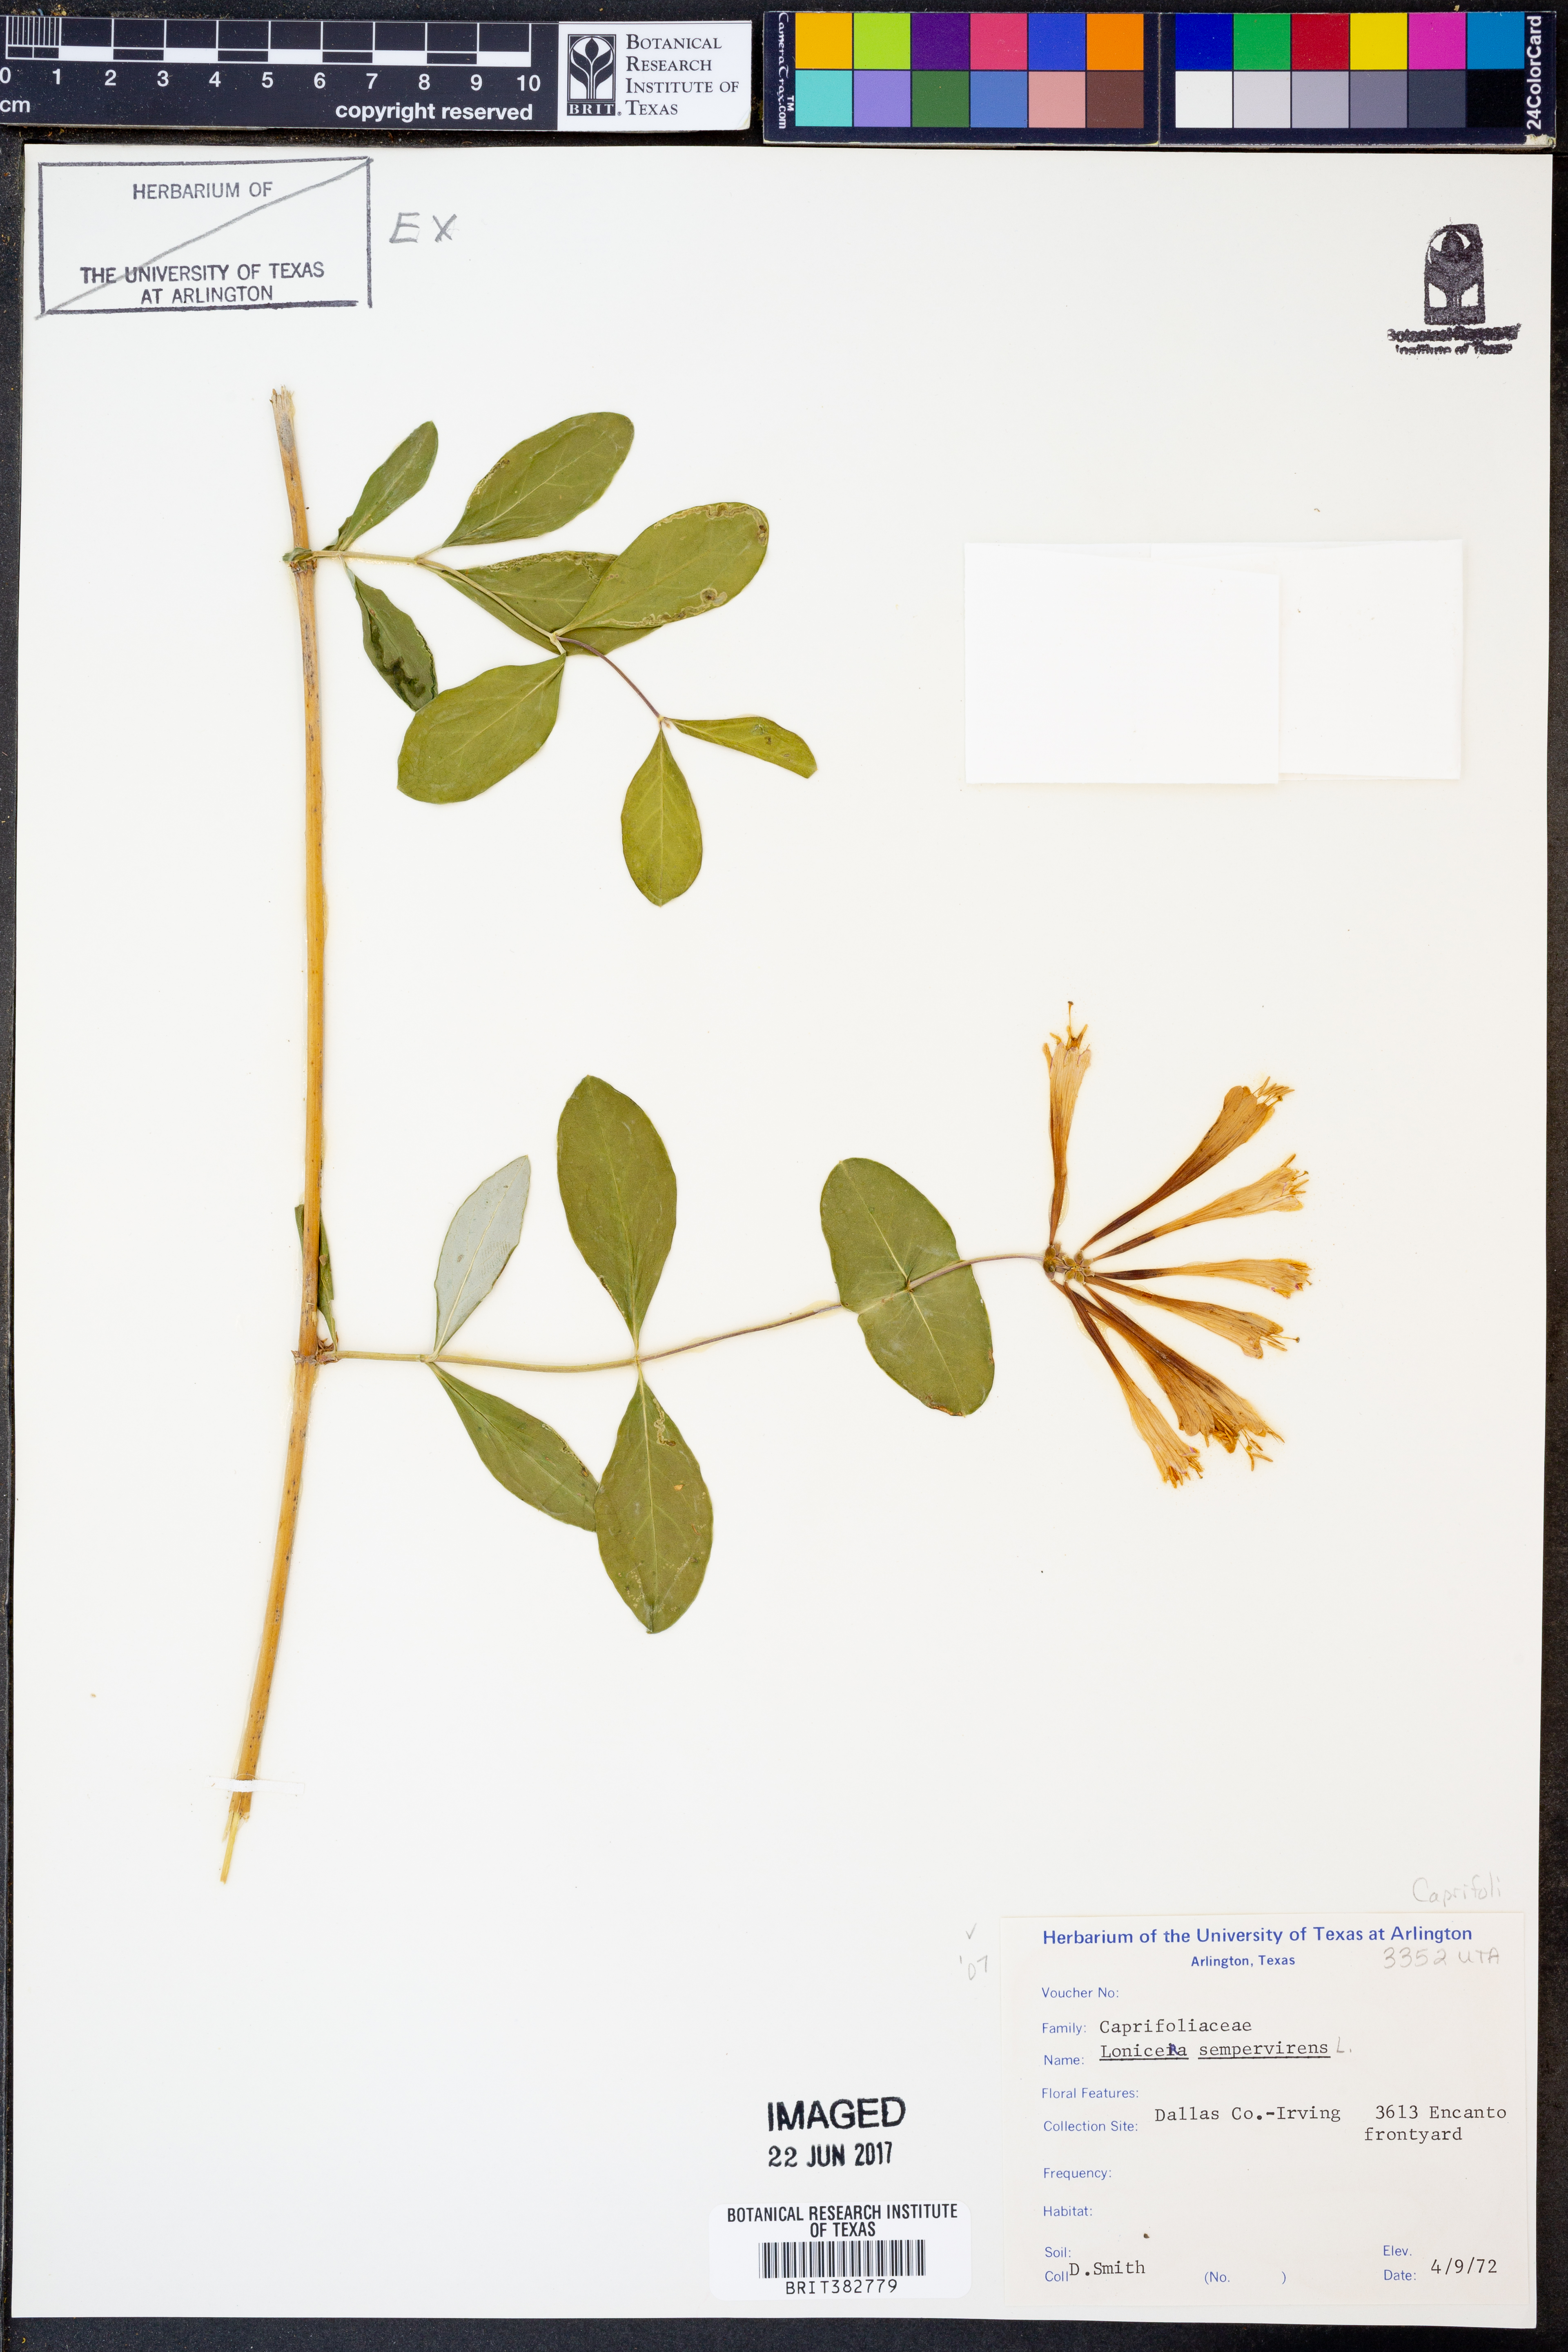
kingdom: Plantae
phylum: Tracheophyta
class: Magnoliopsida
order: Dipsacales
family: Caprifoliaceae
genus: Lonicera
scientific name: Lonicera sempervirens
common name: Coral honeysuckle
